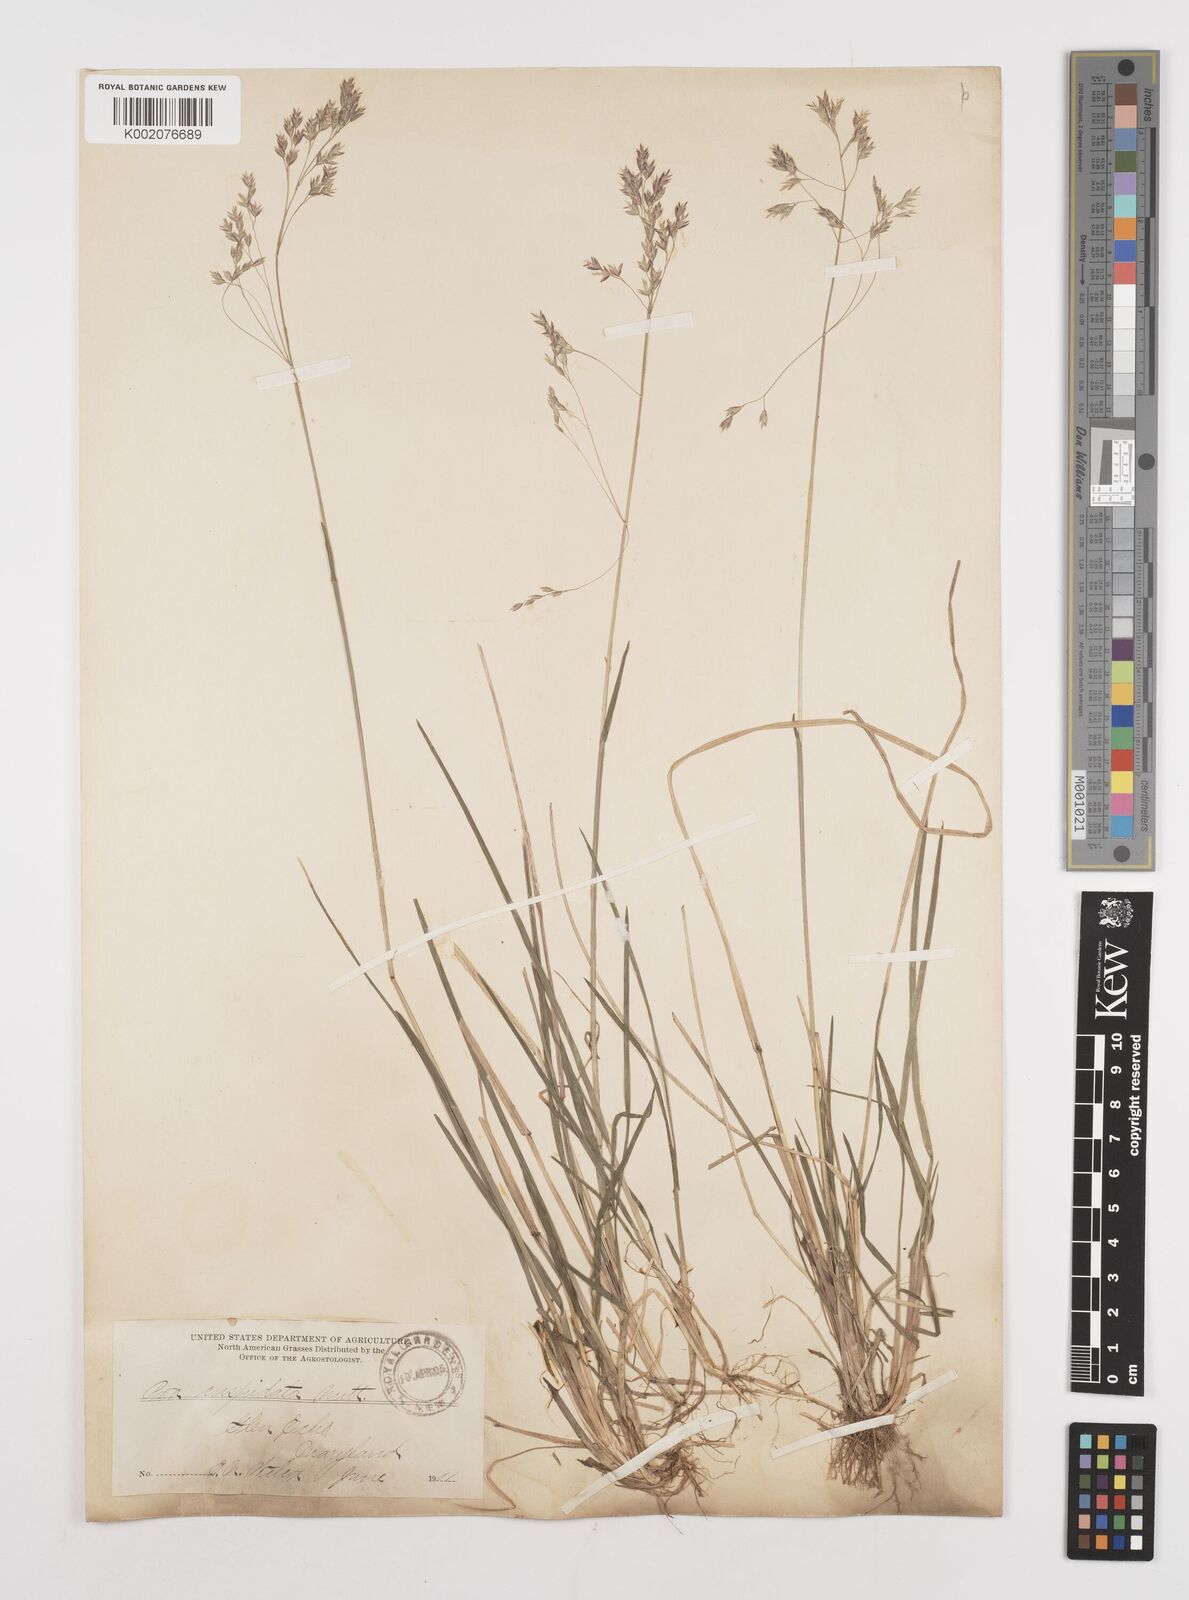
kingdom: Plantae
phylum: Tracheophyta
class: Liliopsida
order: Poales
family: Poaceae
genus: Poa
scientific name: Poa cuspidata
